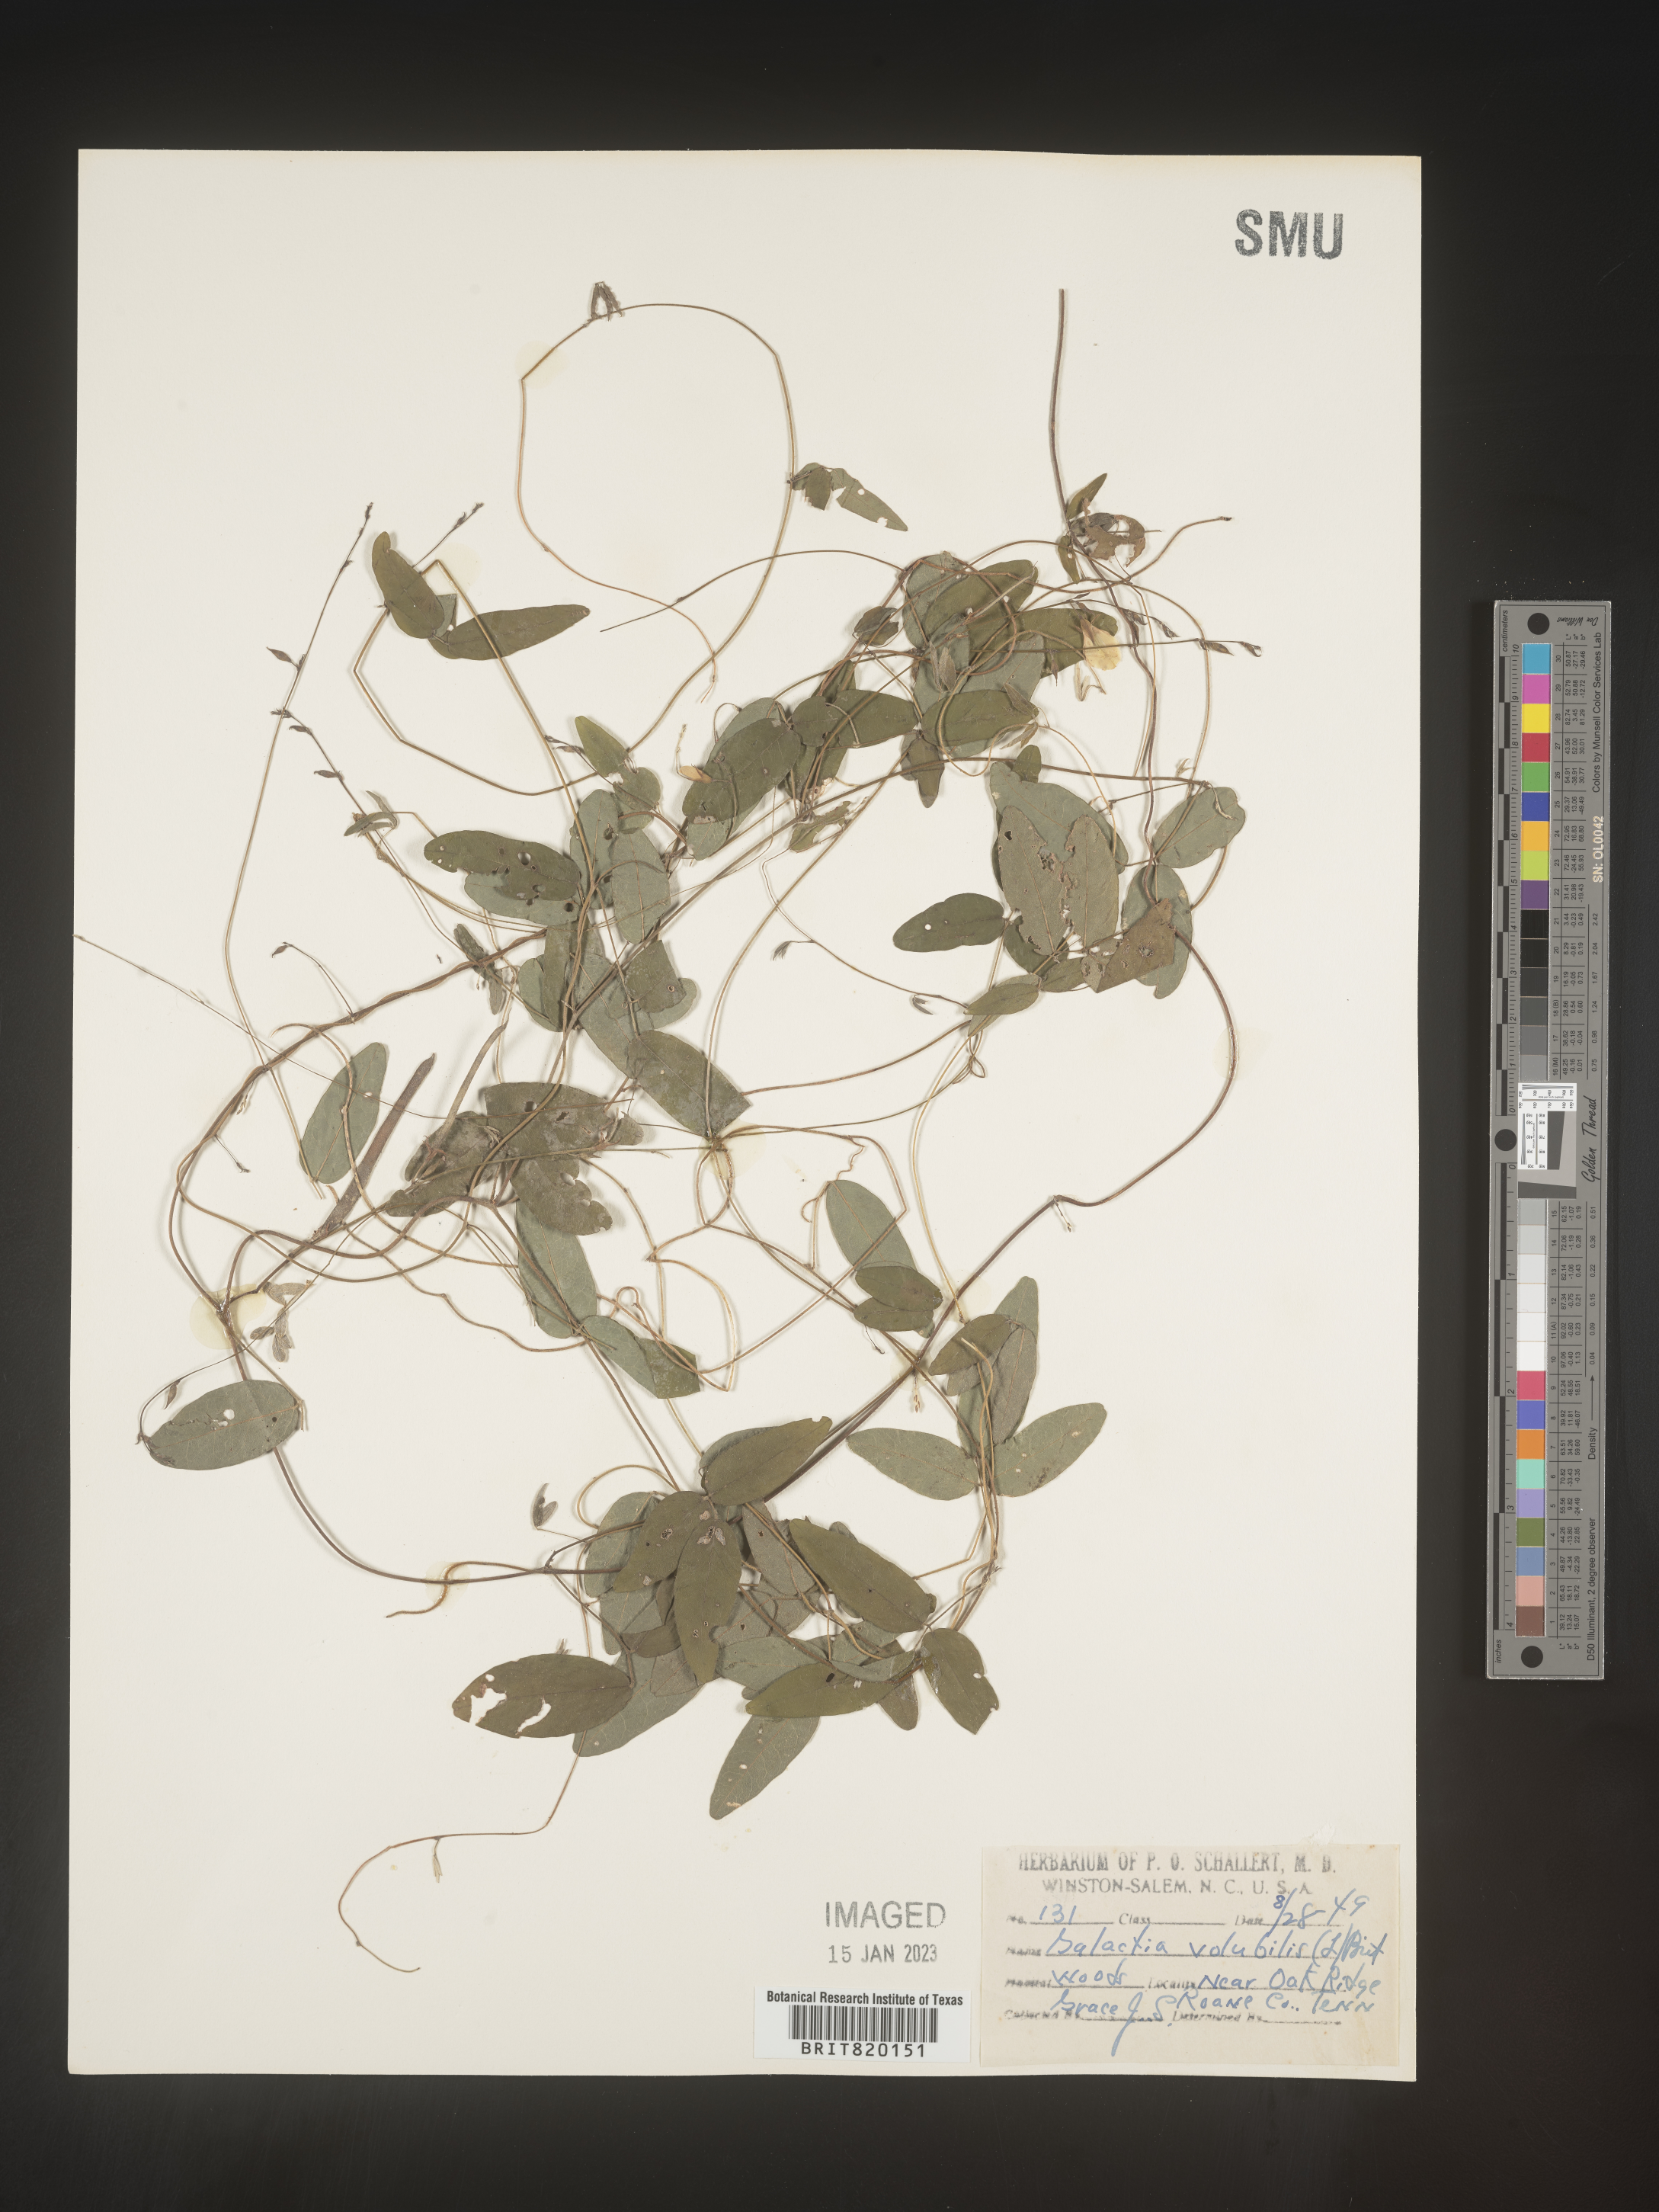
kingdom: Plantae
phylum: Tracheophyta
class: Magnoliopsida
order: Fabales
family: Fabaceae
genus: Galactia
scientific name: Galactia volubilis
